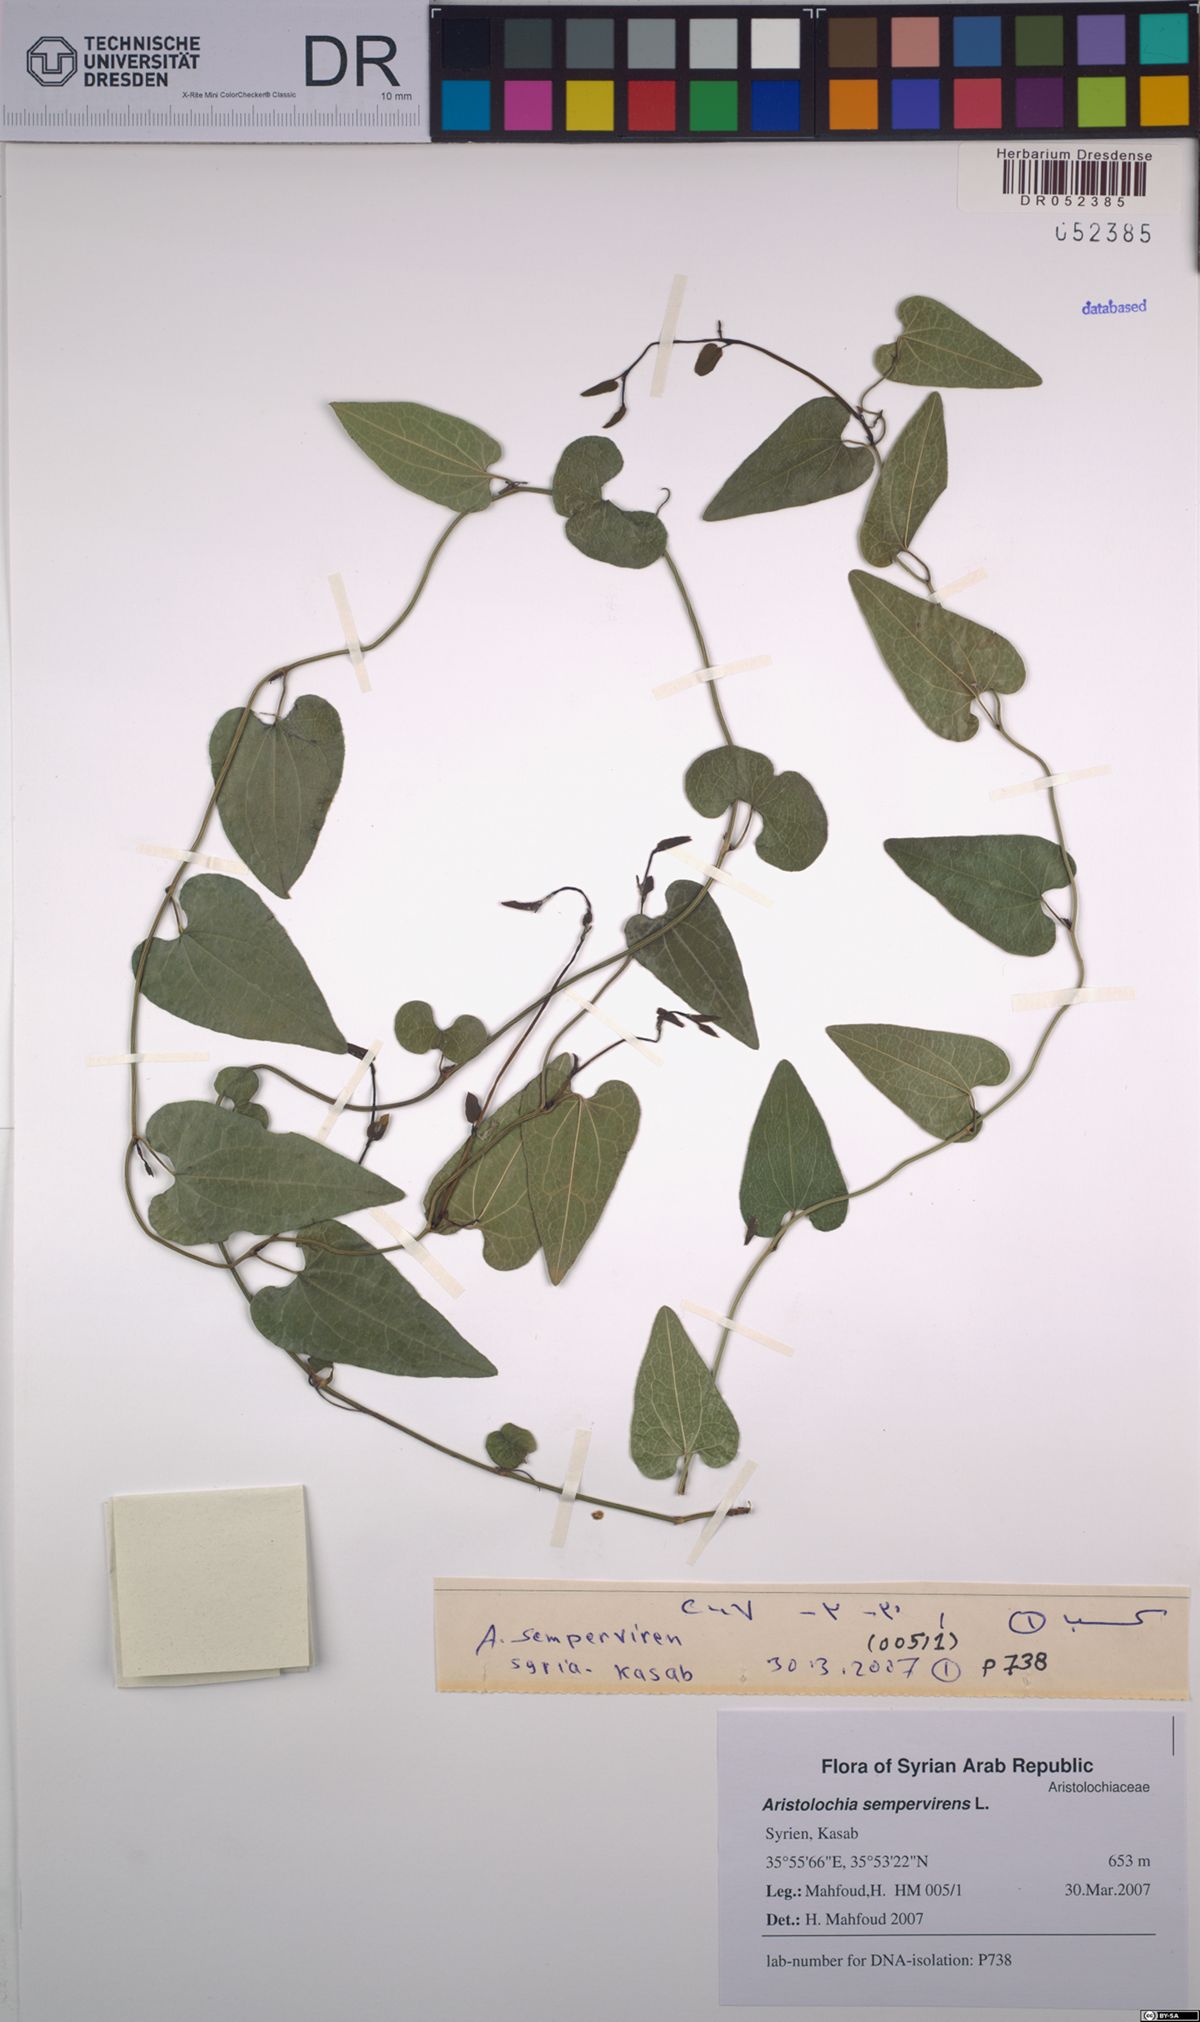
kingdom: Plantae
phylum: Tracheophyta
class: Magnoliopsida
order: Piperales
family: Aristolochiaceae
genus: Aristolochia
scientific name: Aristolochia sempervirens
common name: Long birthwort
